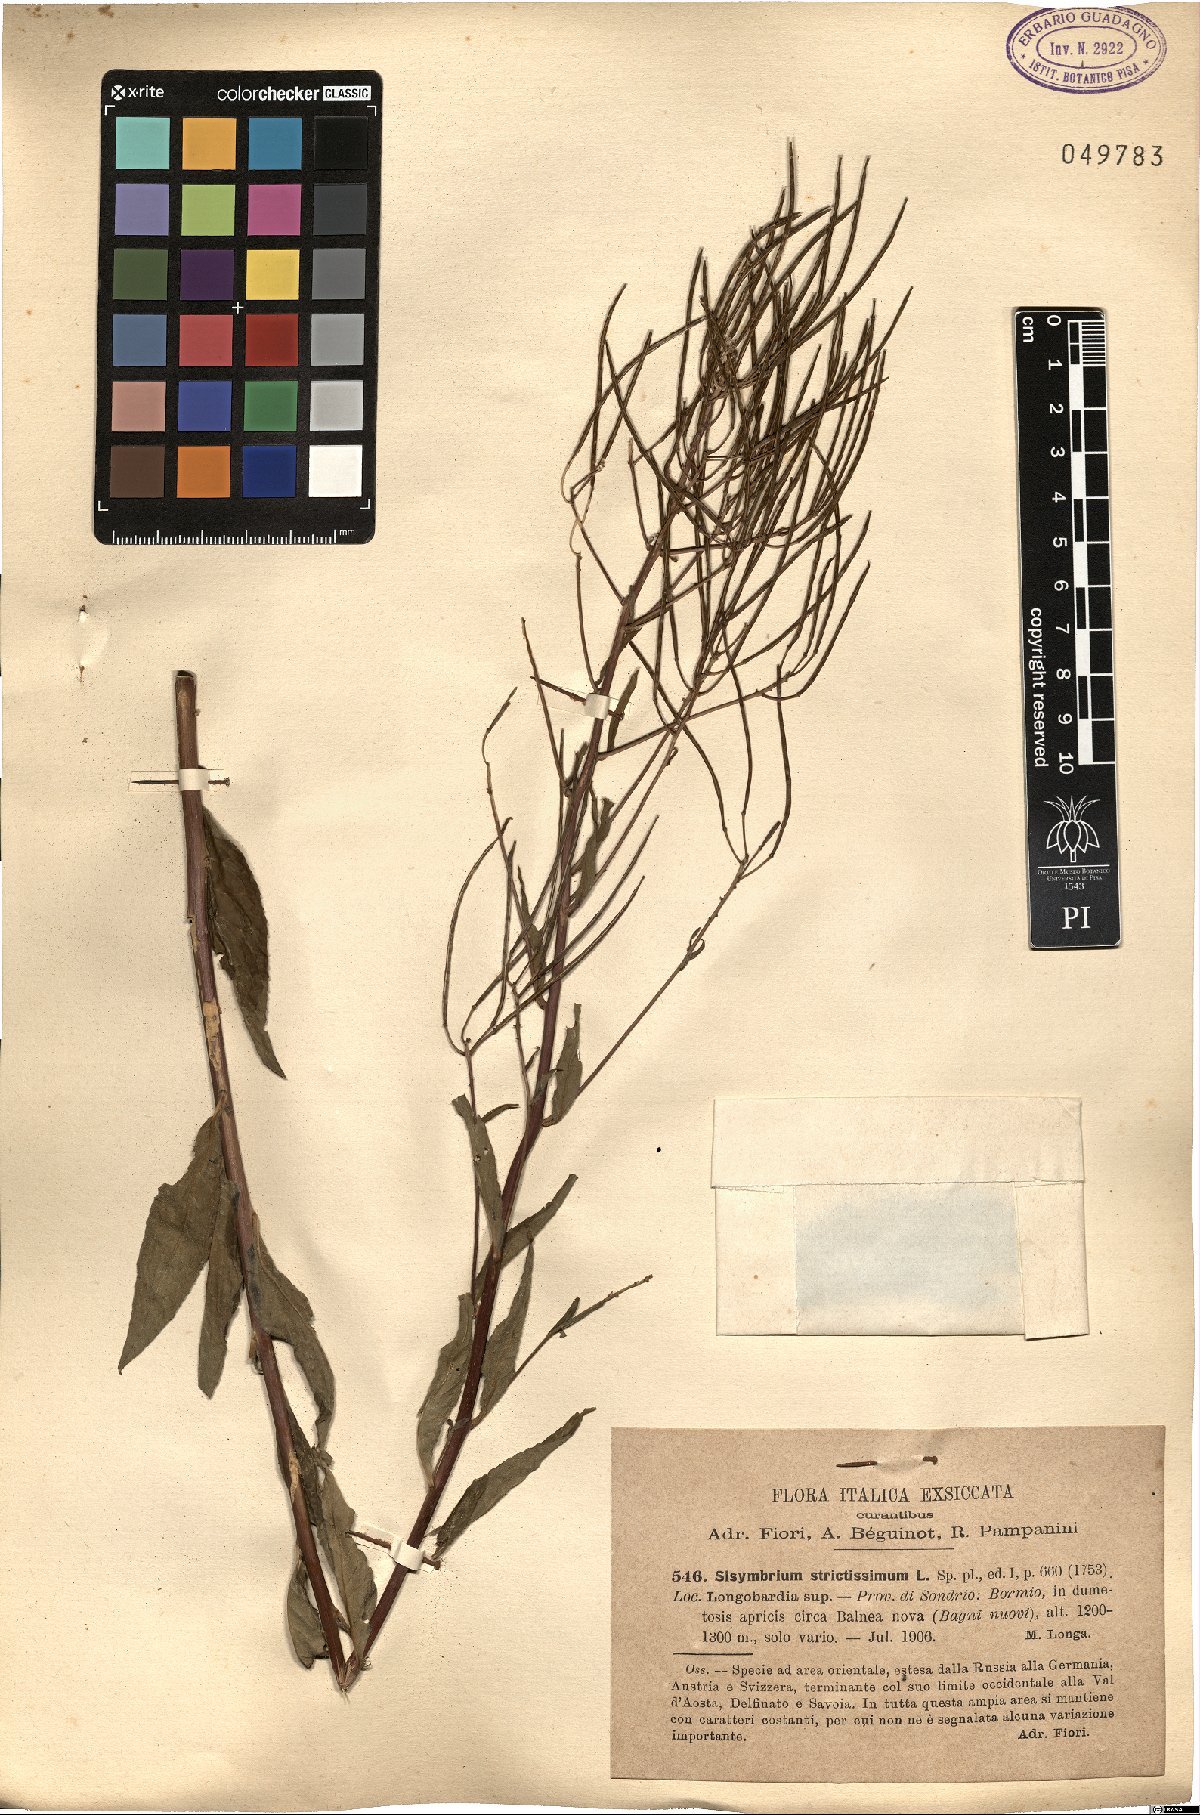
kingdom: Plantae
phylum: Tracheophyta
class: Magnoliopsida
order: Brassicales
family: Brassicaceae
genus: Sisymbrium
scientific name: Sisymbrium strictissimum
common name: Perennial rocket
